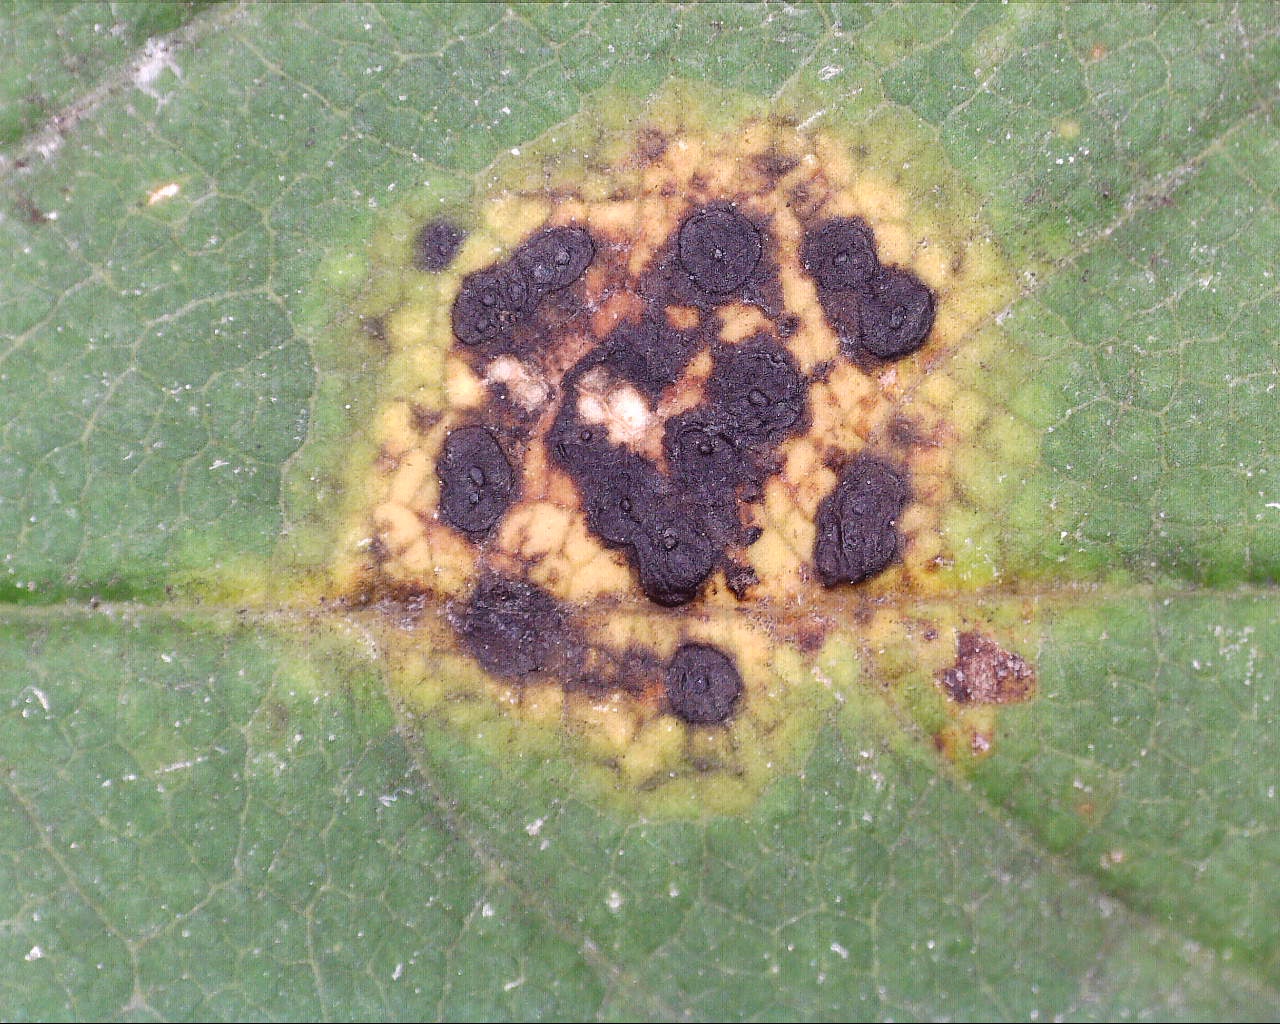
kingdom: Fungi
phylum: Ascomycota
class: Leotiomycetes
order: Rhytismatales
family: Rhytismataceae
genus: Rhytisma
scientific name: Rhytisma acerinum
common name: ahorn-rynkeplet
